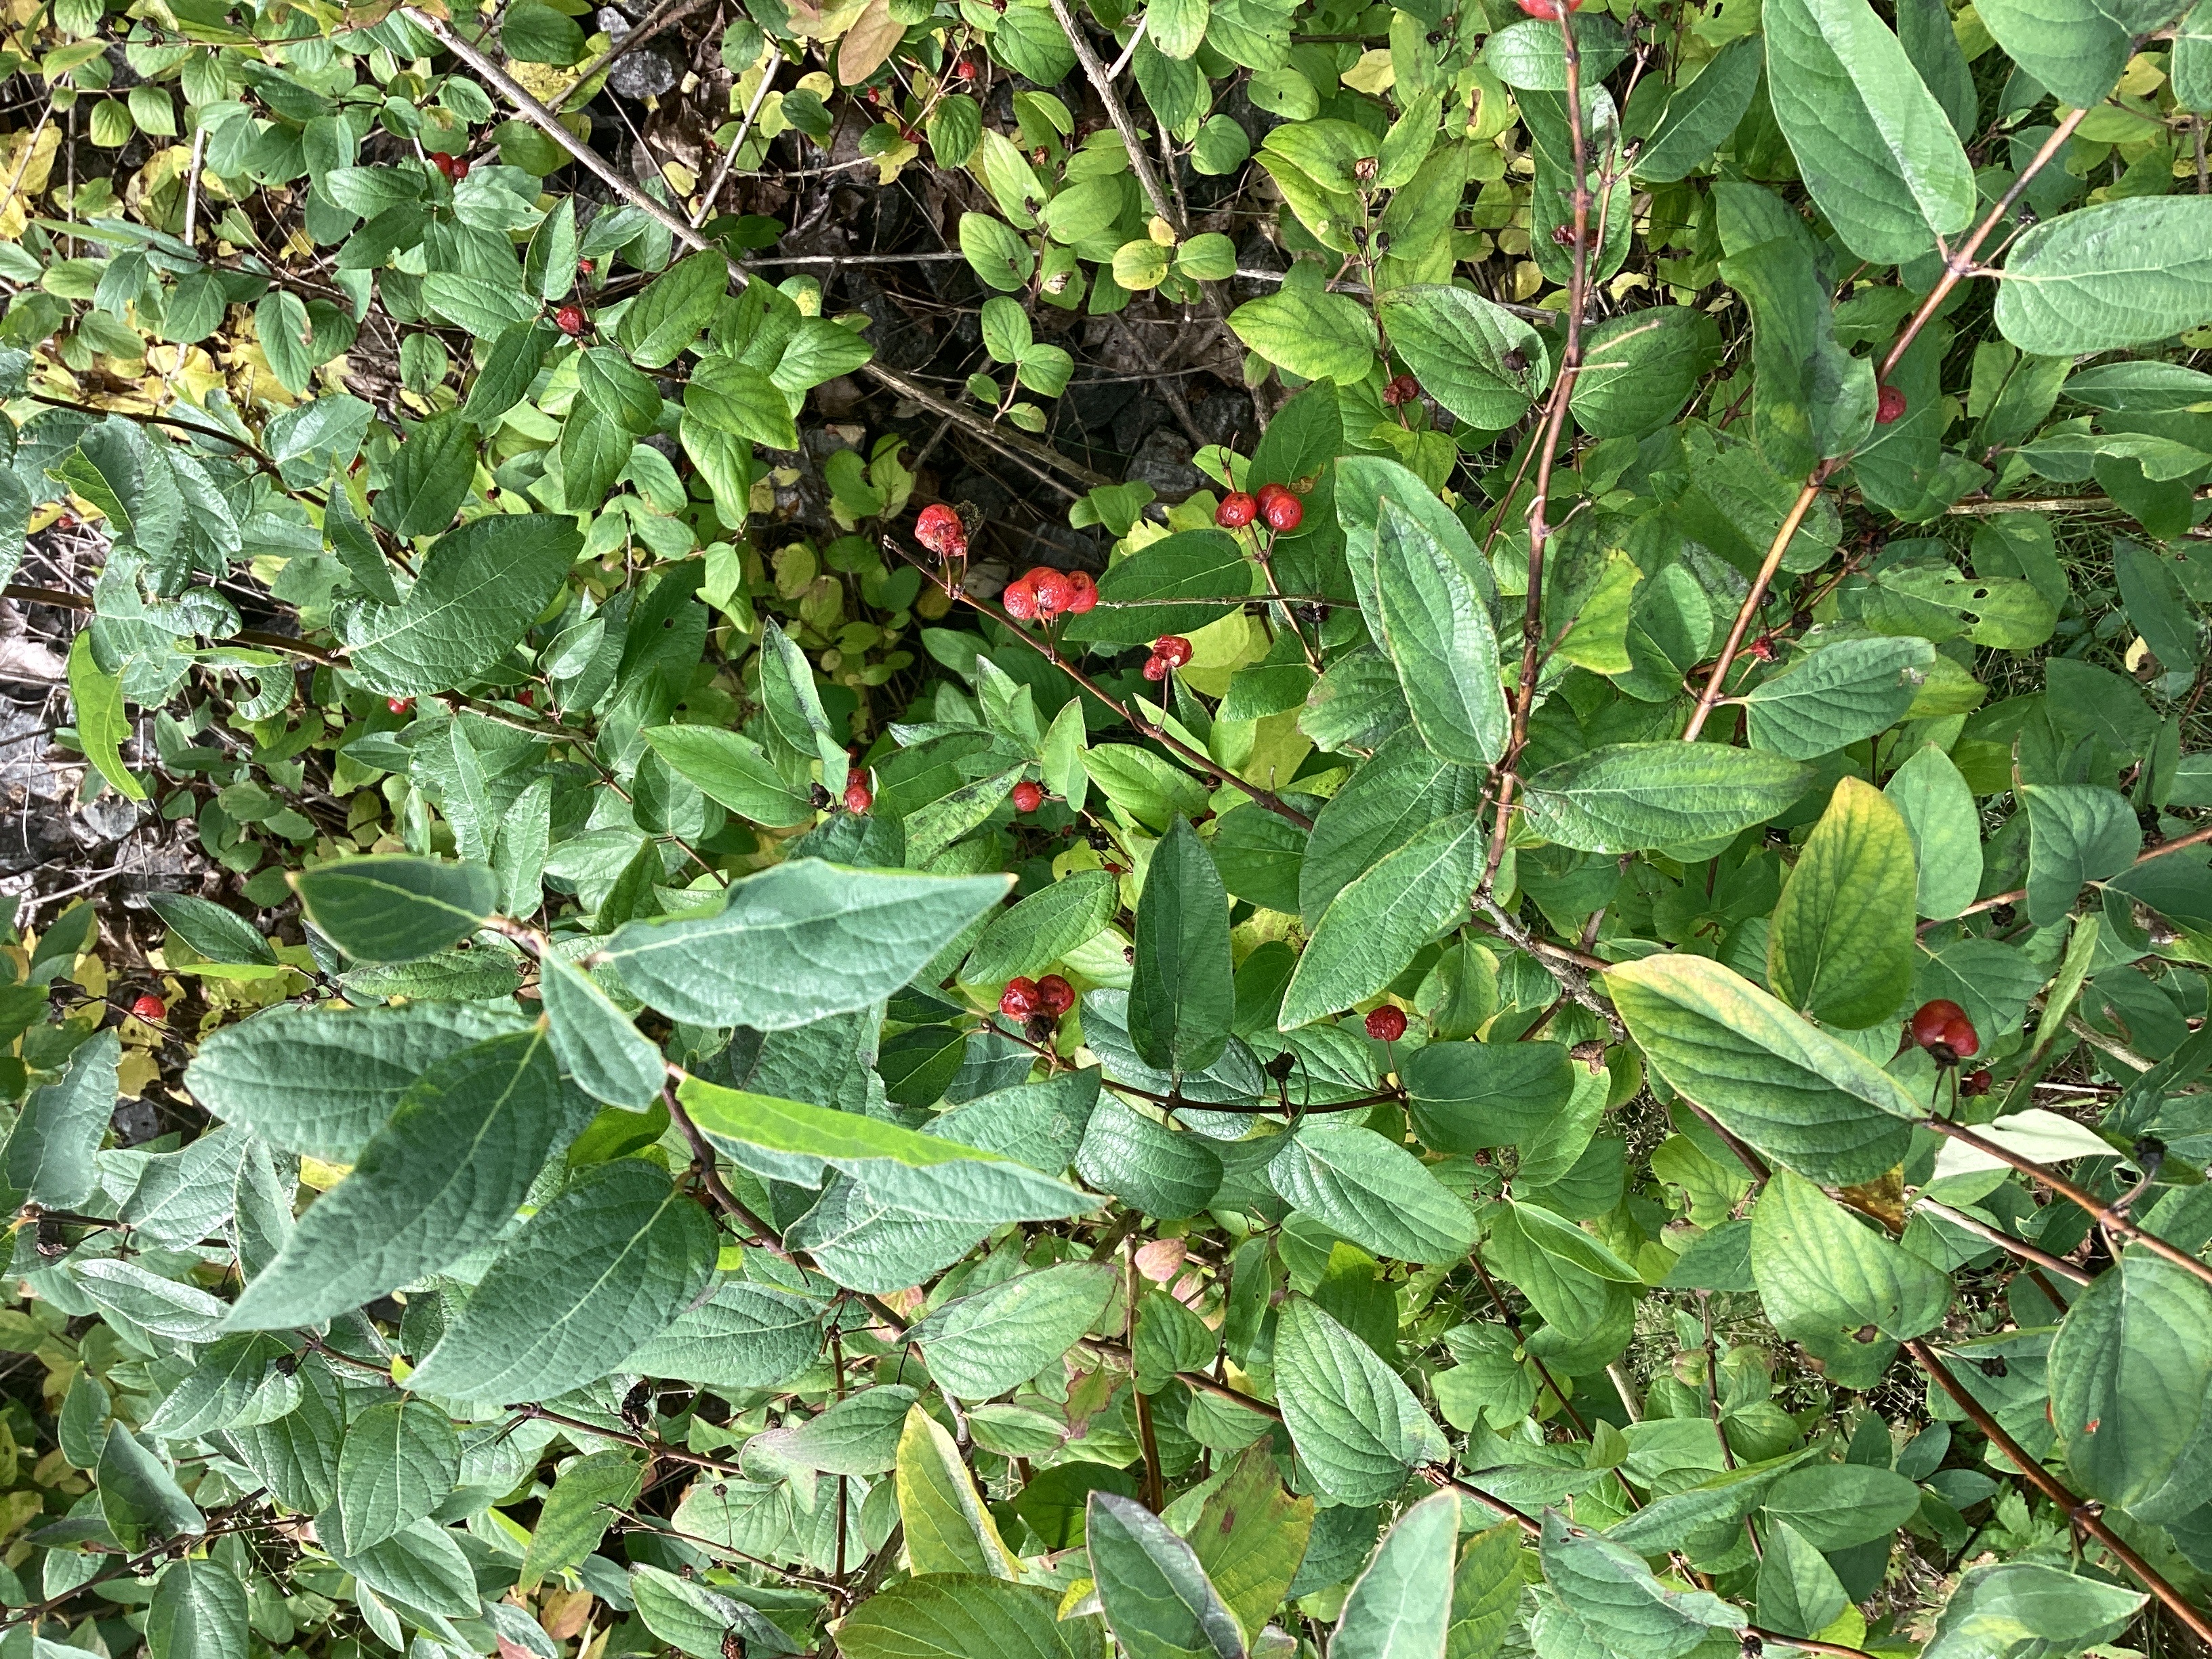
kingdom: Plantae
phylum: Tracheophyta
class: Magnoliopsida
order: Dipsacales
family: Caprifoliaceae
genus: Lonicera
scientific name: Lonicera tatarica
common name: tatarleddved
